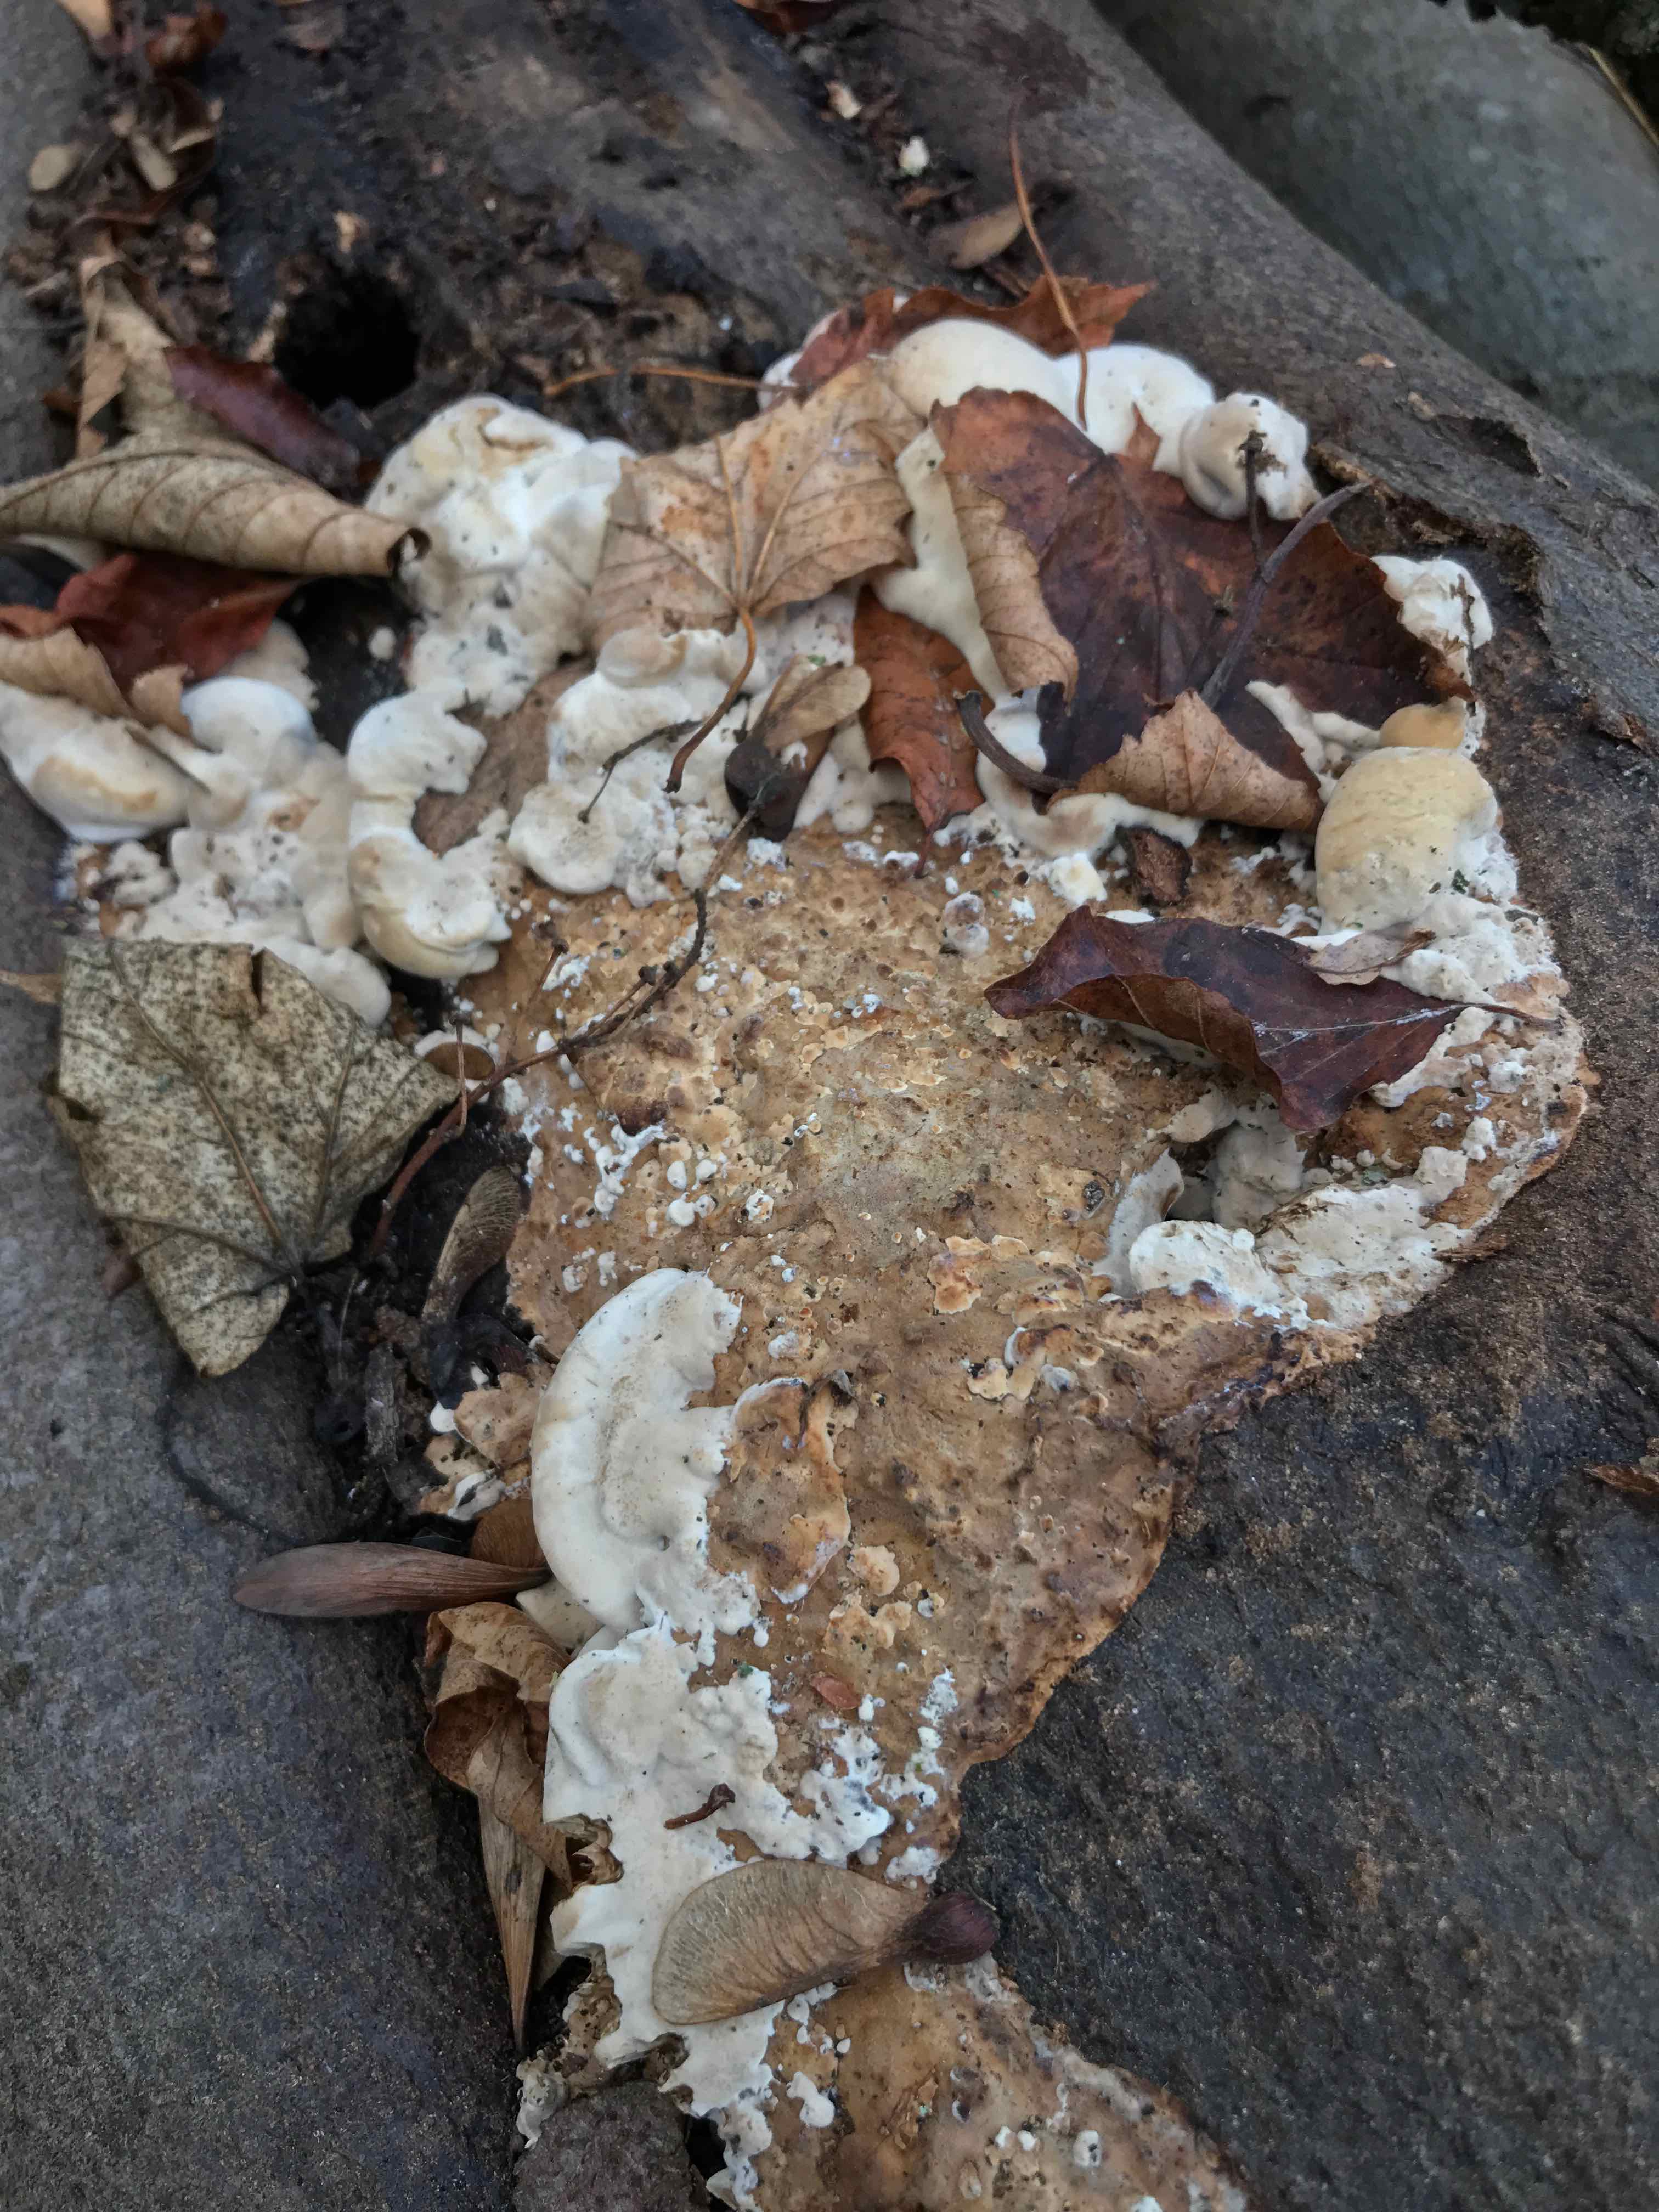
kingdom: Fungi
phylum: Basidiomycota
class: Agaricomycetes
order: Polyporales
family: Phanerochaetaceae
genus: Bjerkandera
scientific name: Bjerkandera fumosa
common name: grågul sodporesvamp
